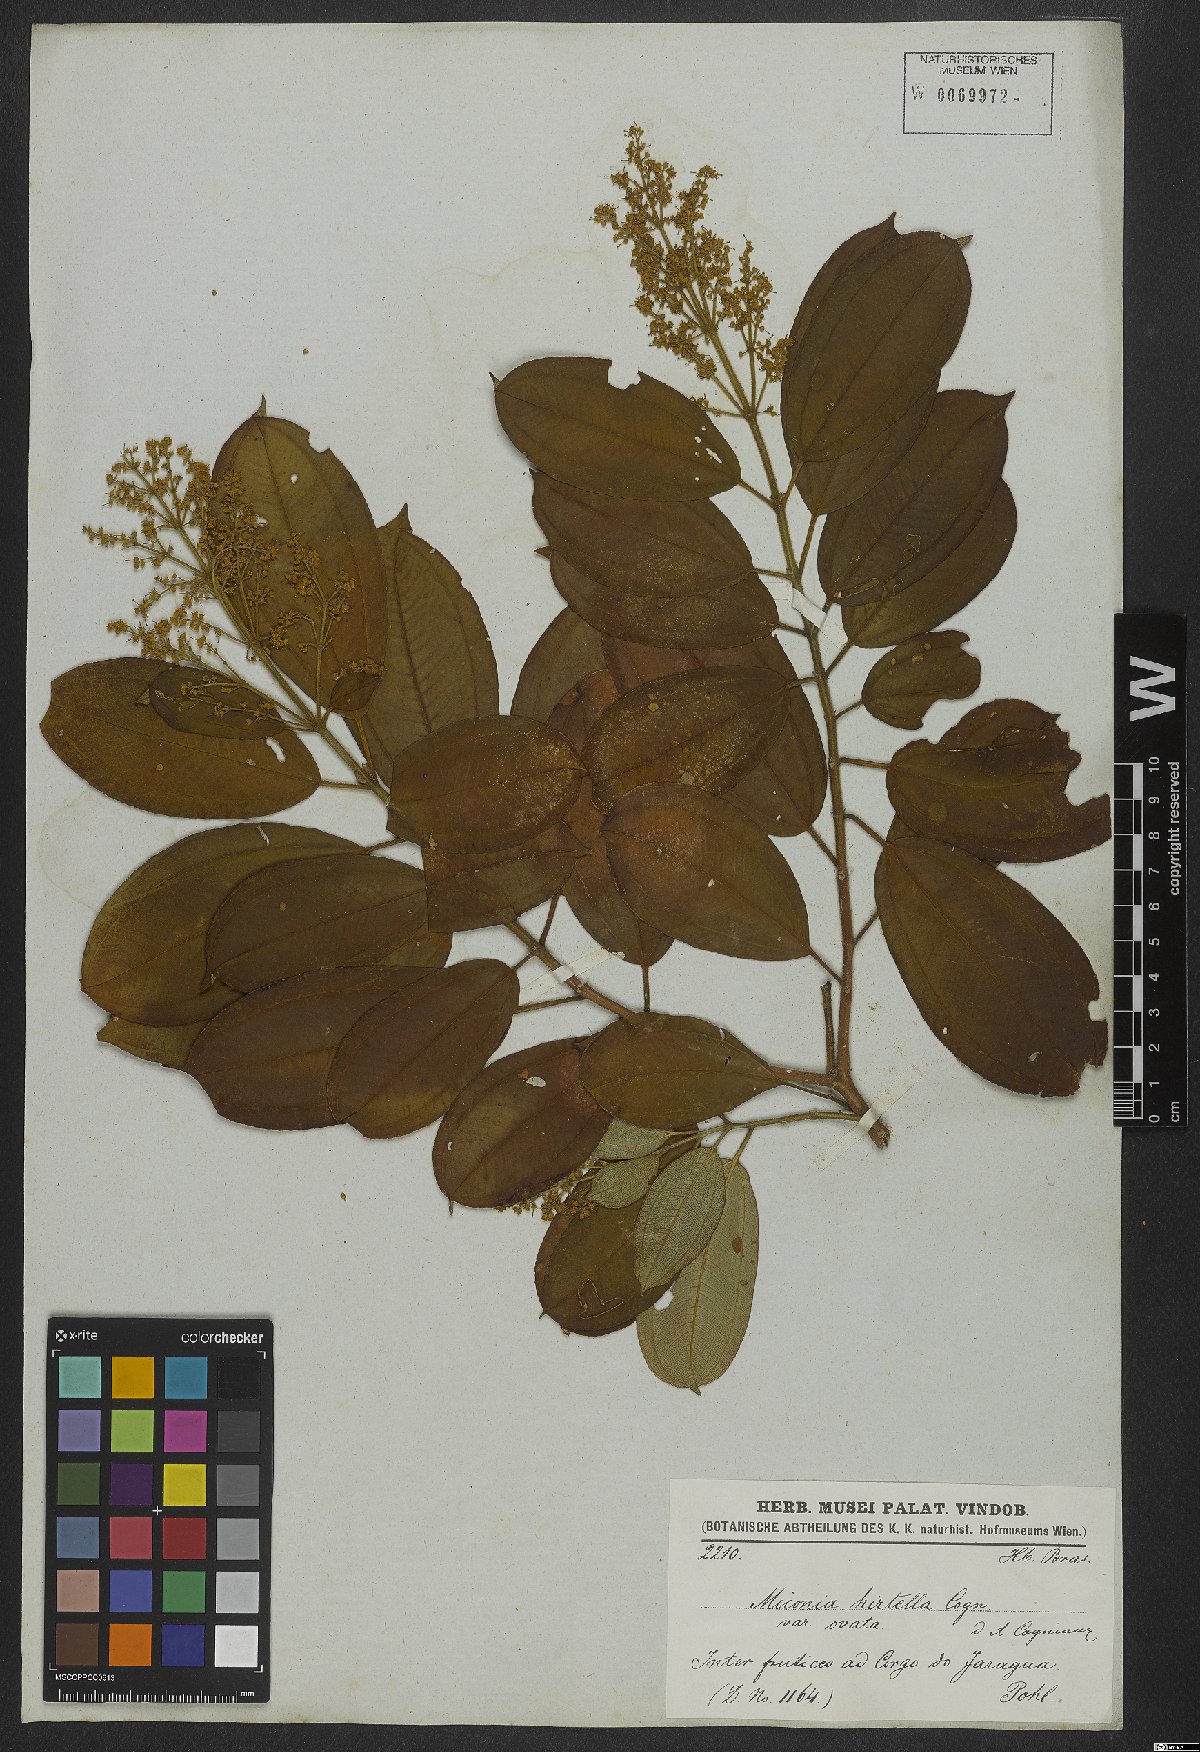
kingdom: Plantae
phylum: Tracheophyta
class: Magnoliopsida
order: Myrtales
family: Melastomataceae
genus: Miconia
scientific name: Miconia hirta
